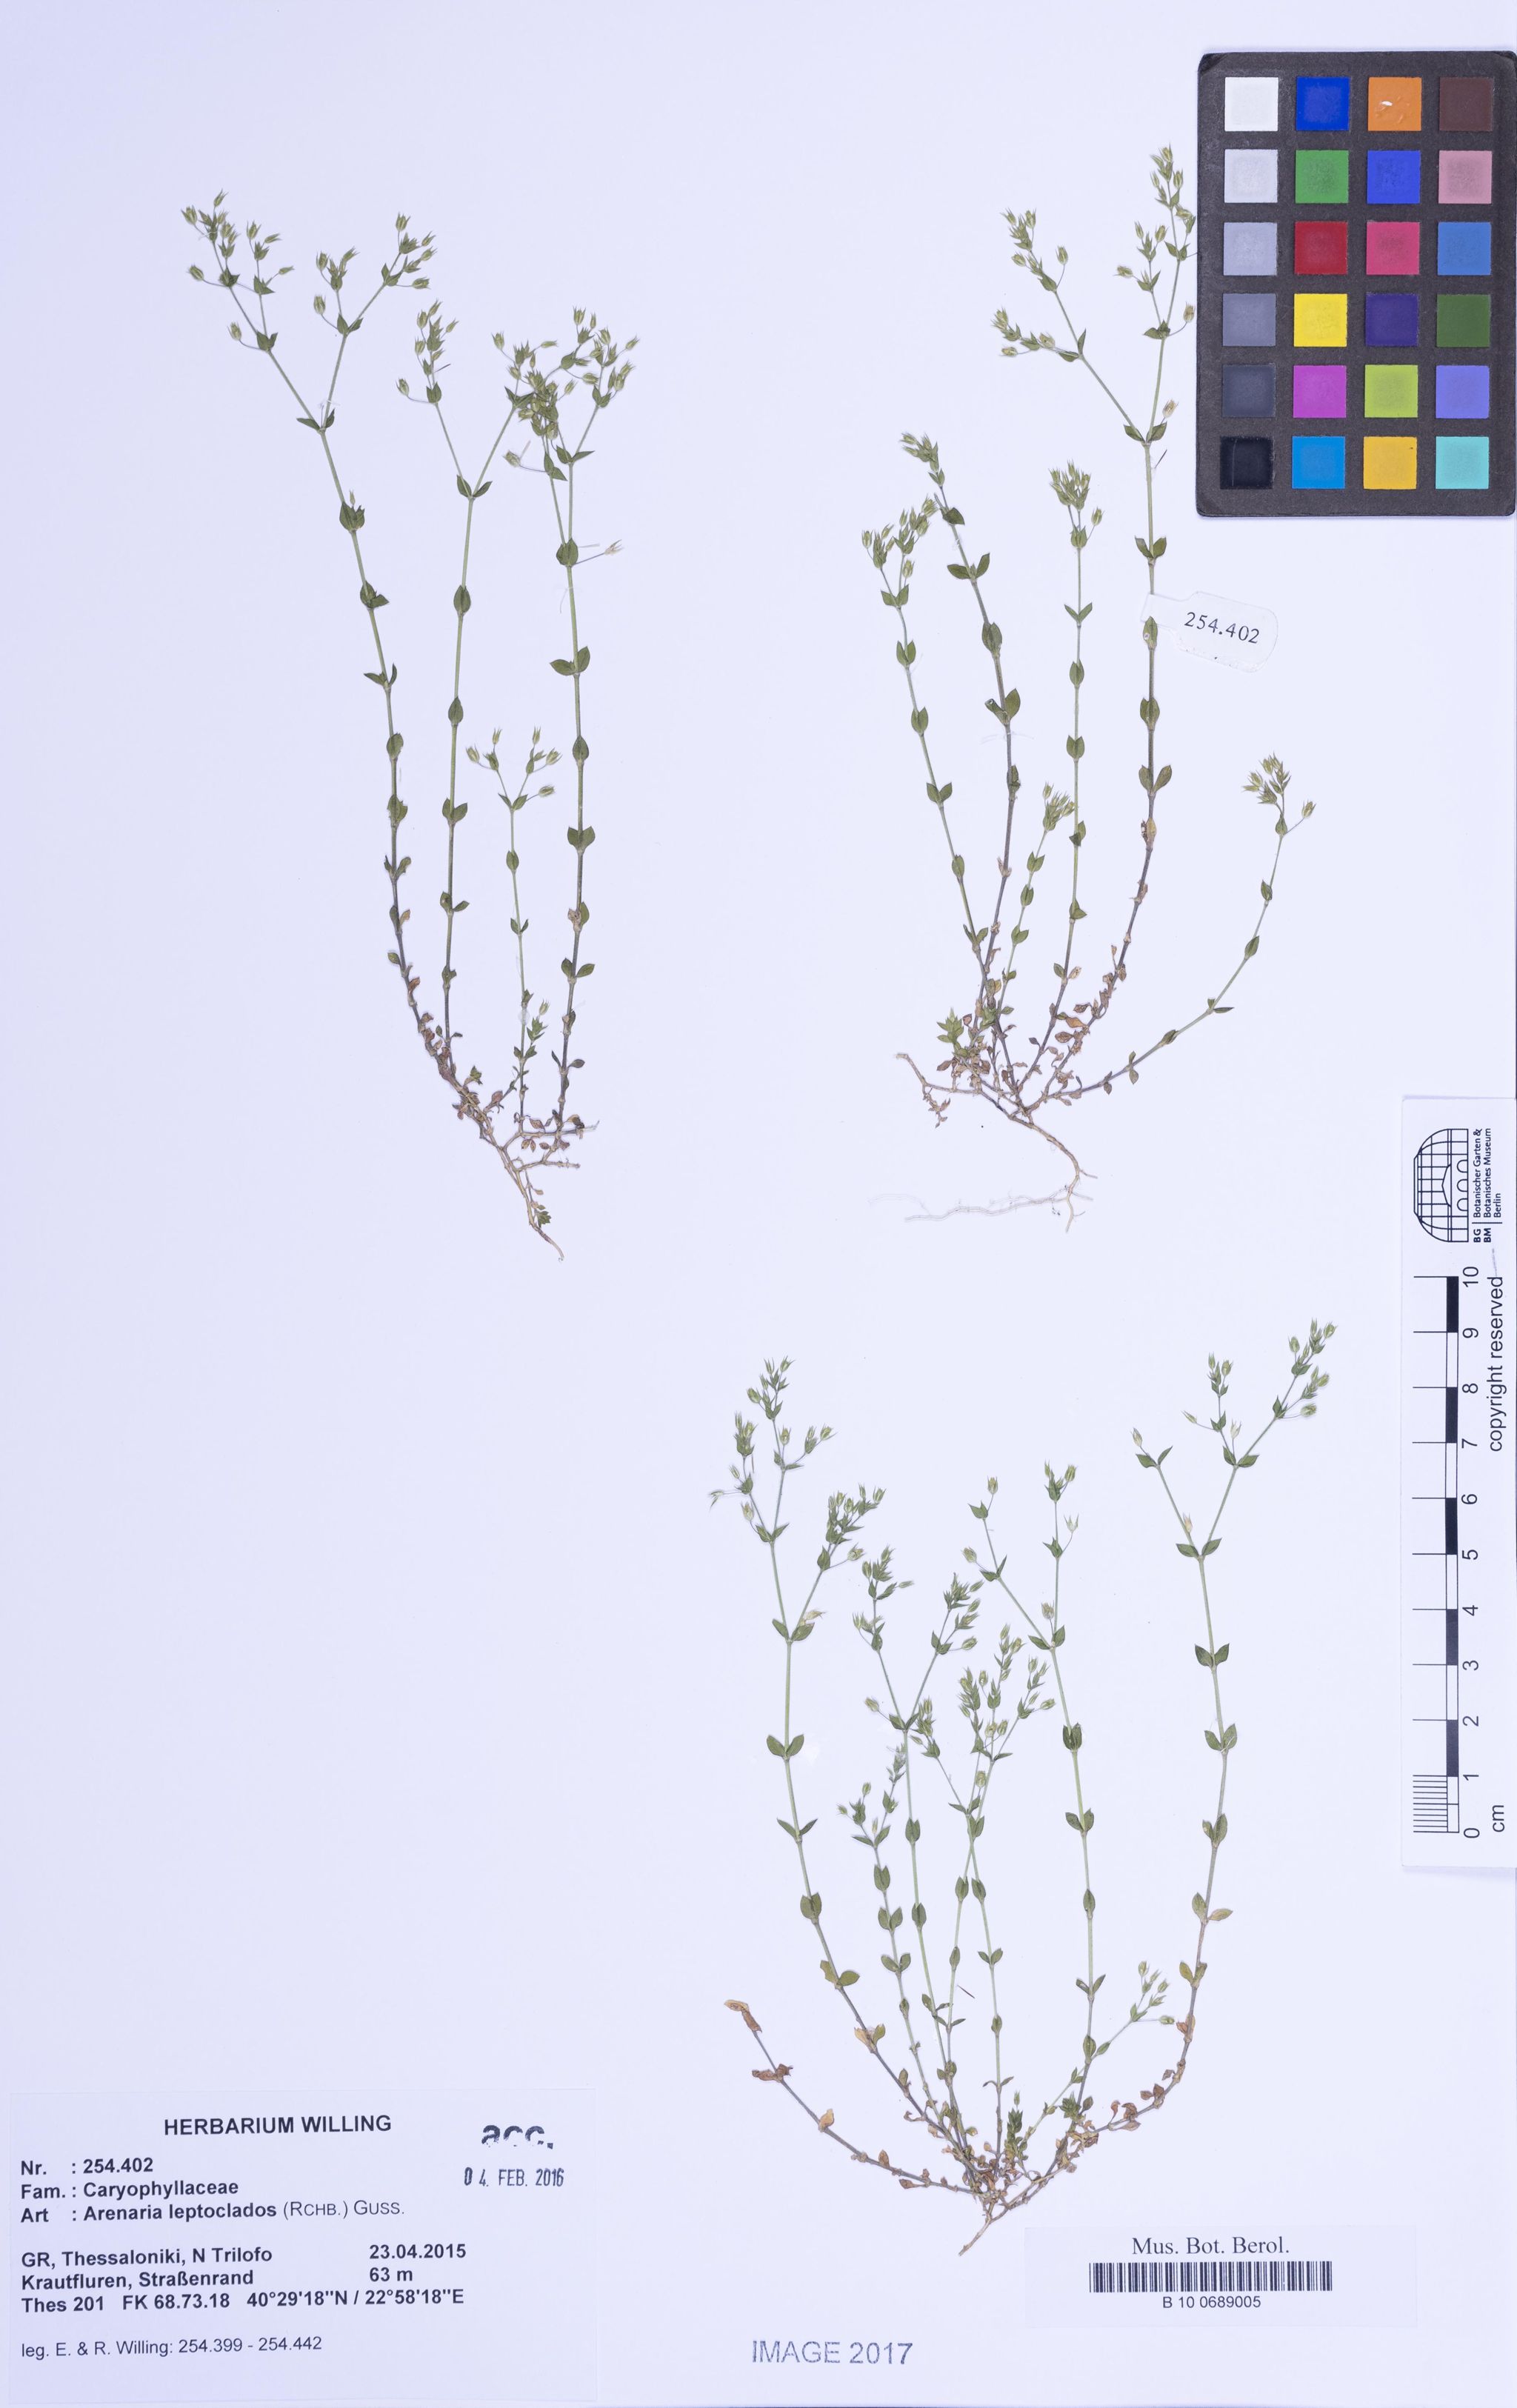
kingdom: Plantae
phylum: Tracheophyta
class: Magnoliopsida
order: Caryophyllales
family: Caryophyllaceae
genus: Arenaria
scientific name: Arenaria leptoclados
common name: Thyme-leaved sandwort
